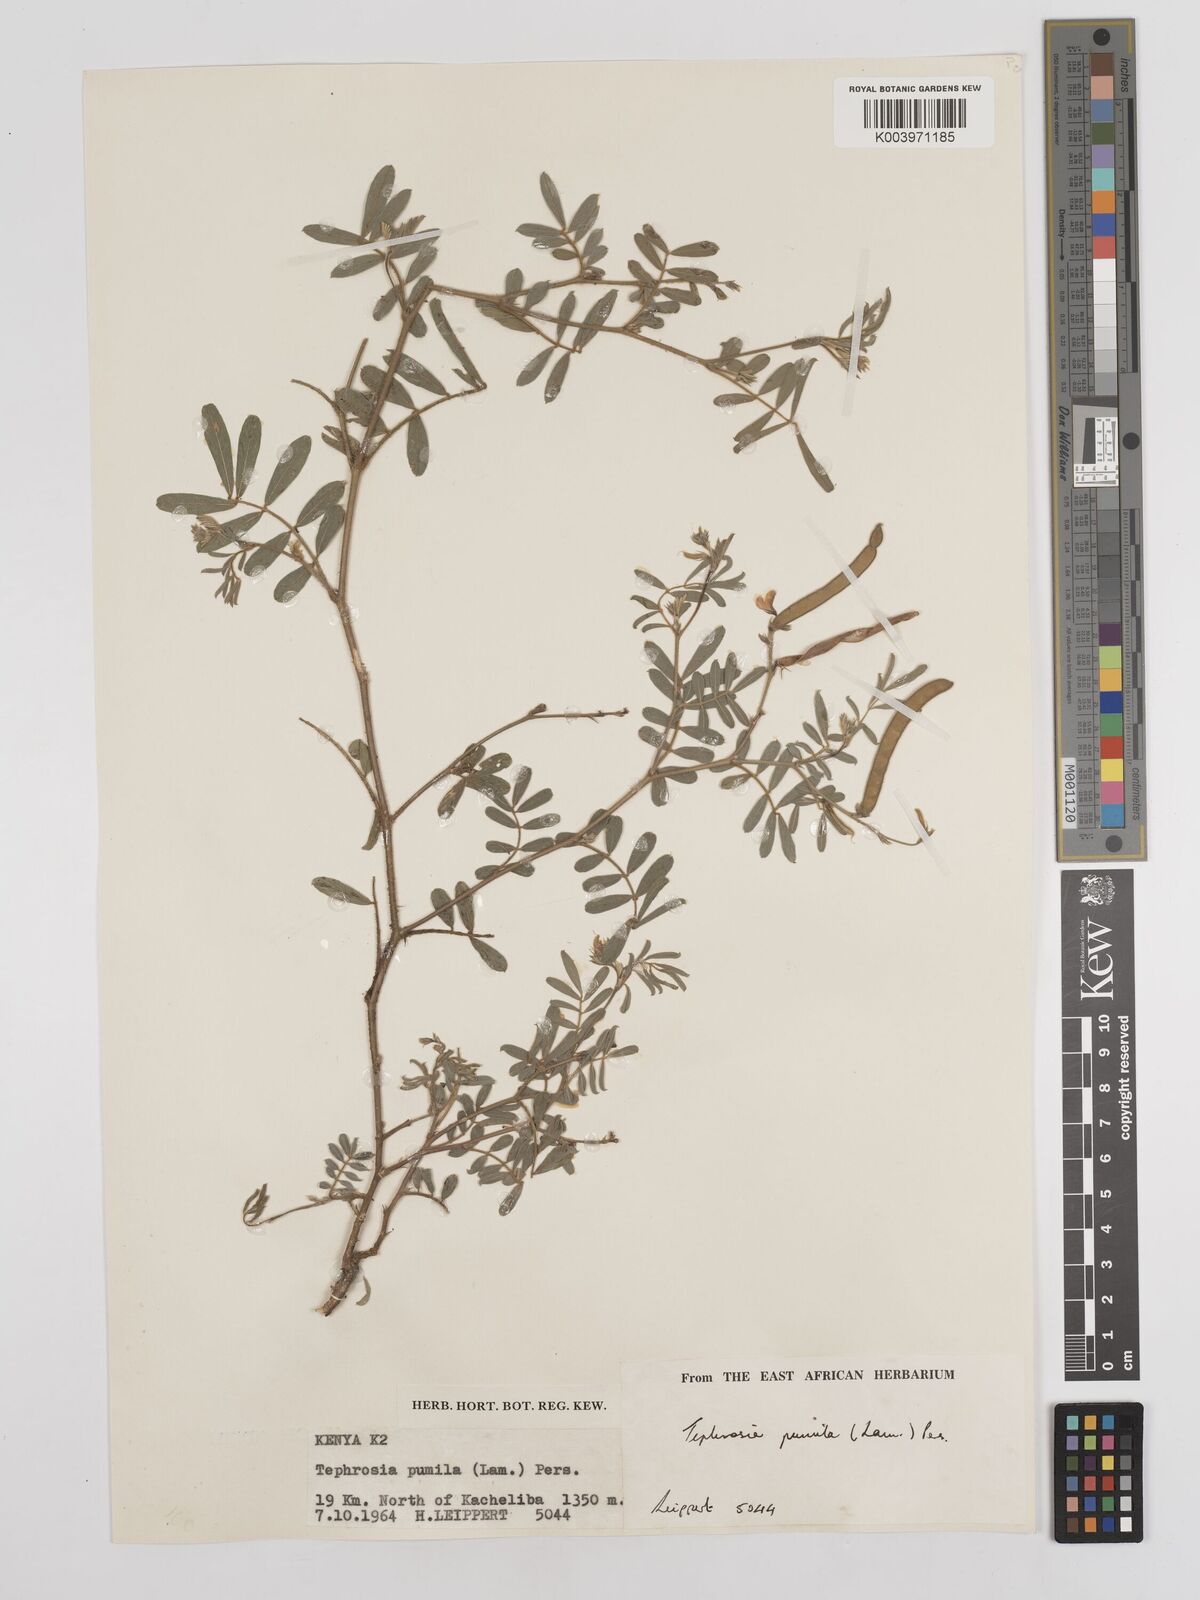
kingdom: Plantae
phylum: Tracheophyta
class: Magnoliopsida
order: Fabales
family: Fabaceae
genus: Tephrosia
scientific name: Tephrosia pumila
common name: Indigo sauvage
